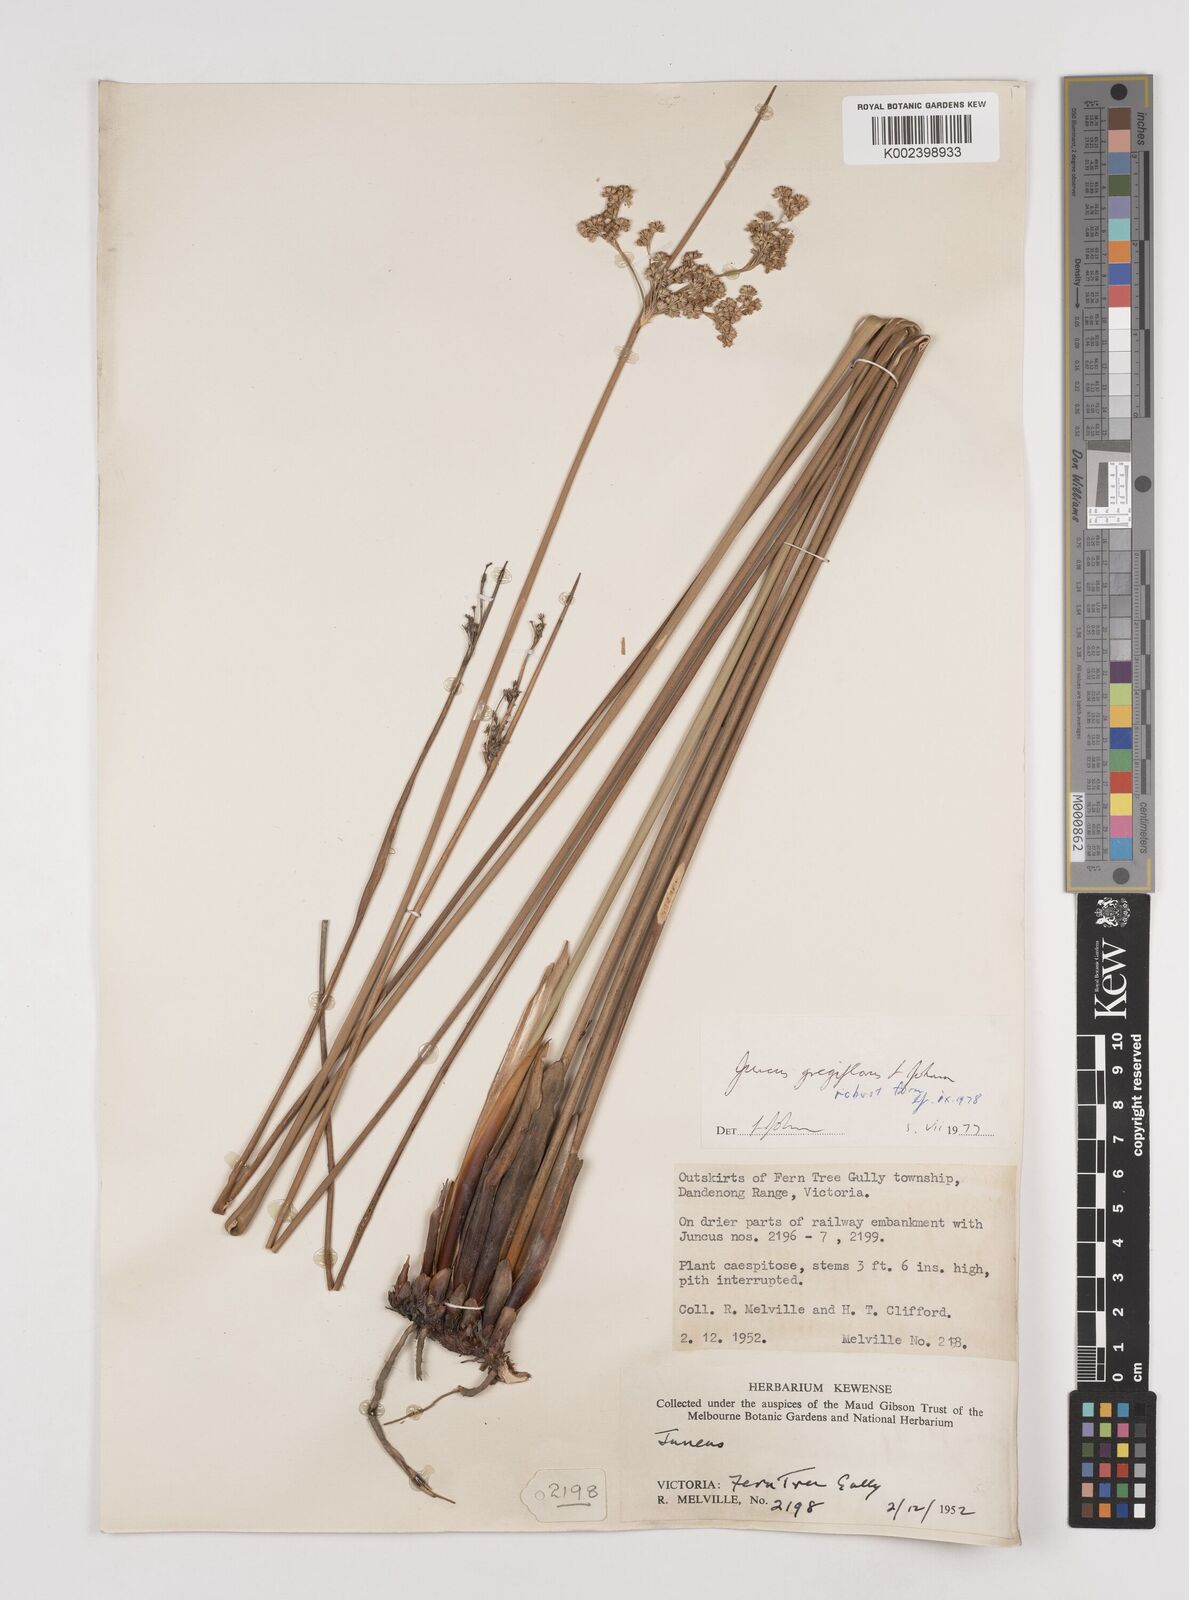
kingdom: Plantae
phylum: Tracheophyta
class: Liliopsida
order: Poales
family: Juncaceae
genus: Juncus
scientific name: Juncus gregiflorus
